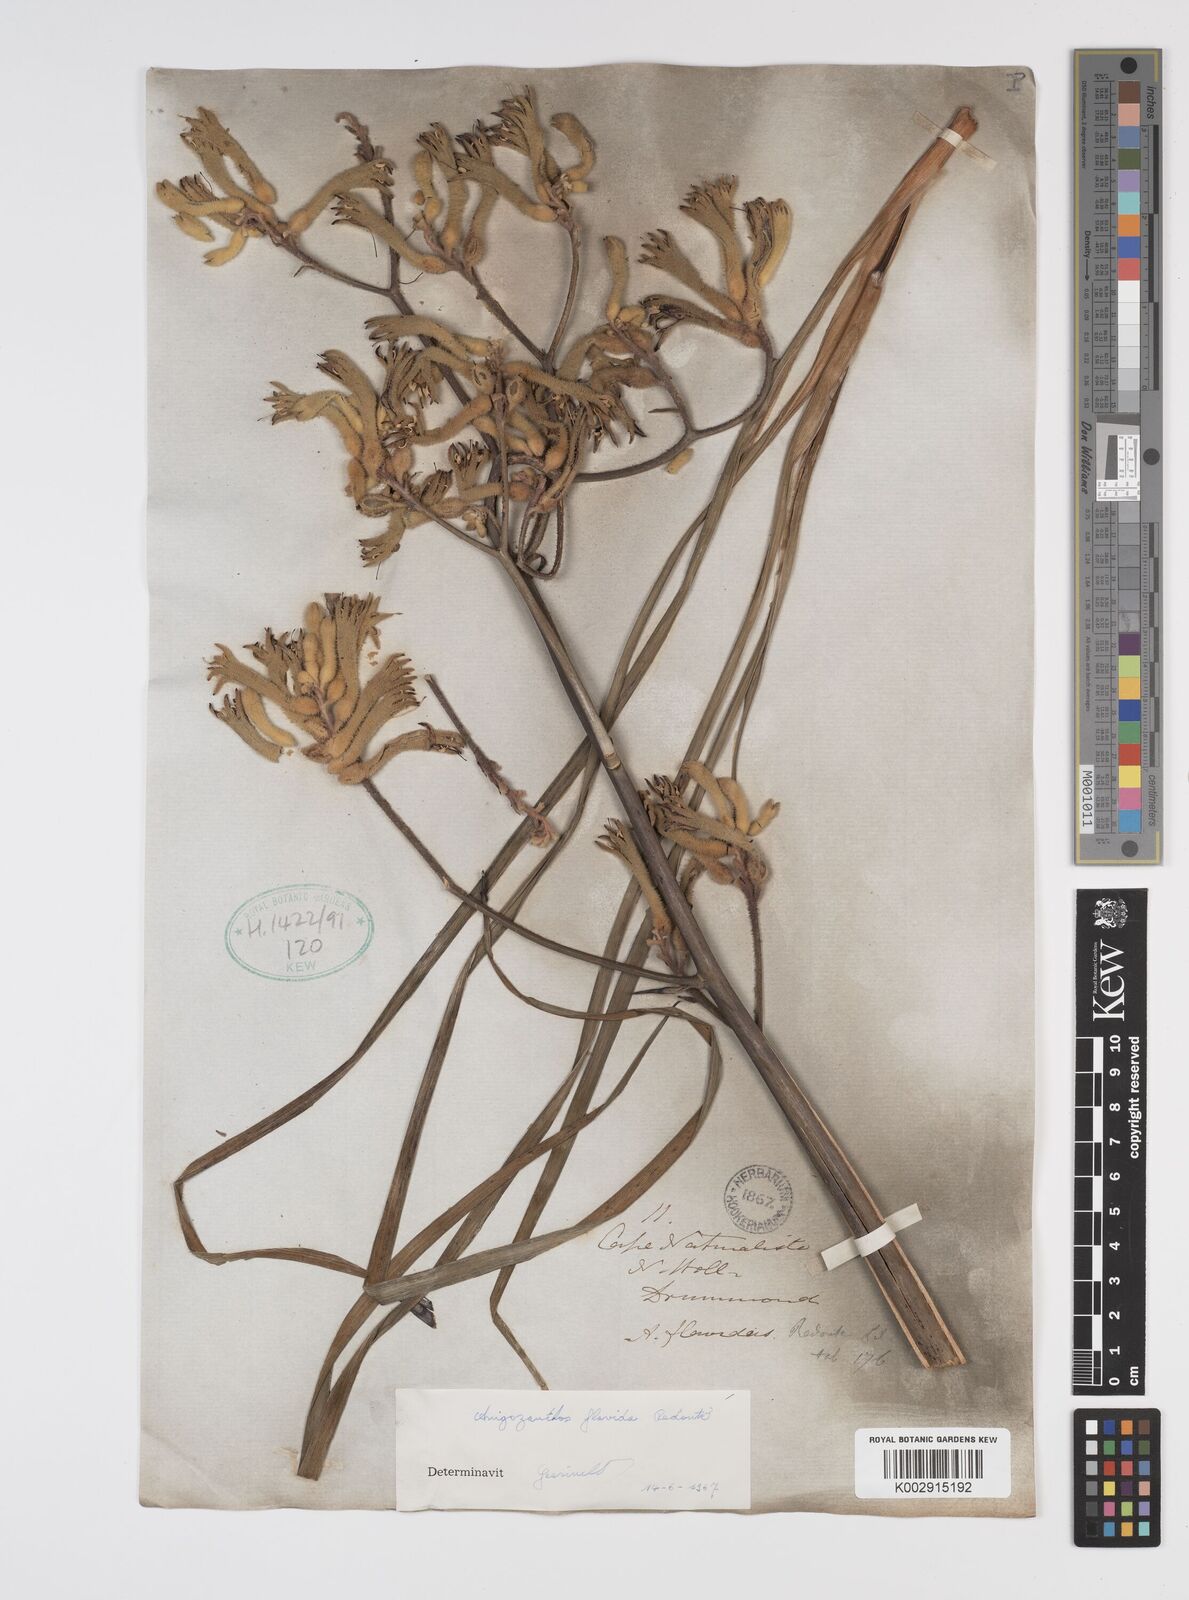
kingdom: Plantae
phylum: Tracheophyta
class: Liliopsida
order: Commelinales
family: Haemodoraceae
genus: Anigozanthos
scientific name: Anigozanthos flavidus
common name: Evergreen kangaroo-paw
